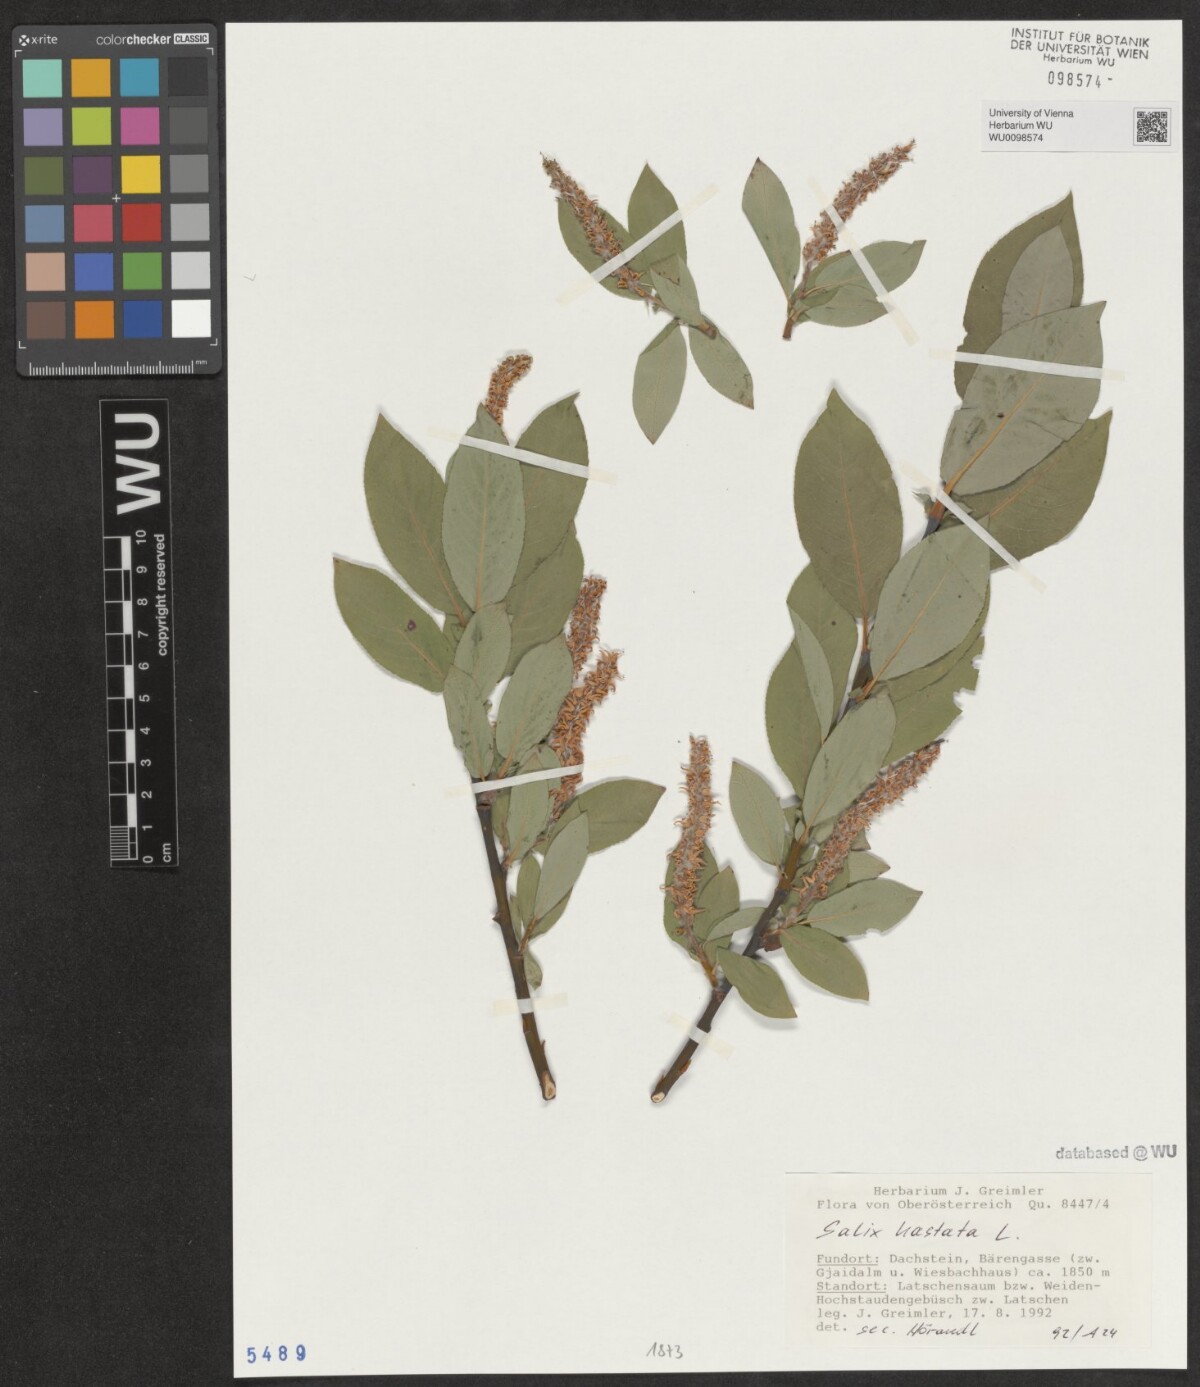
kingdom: Plantae
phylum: Tracheophyta
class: Magnoliopsida
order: Malpighiales
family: Salicaceae
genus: Salix
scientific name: Salix hastata
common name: Halberd willow
